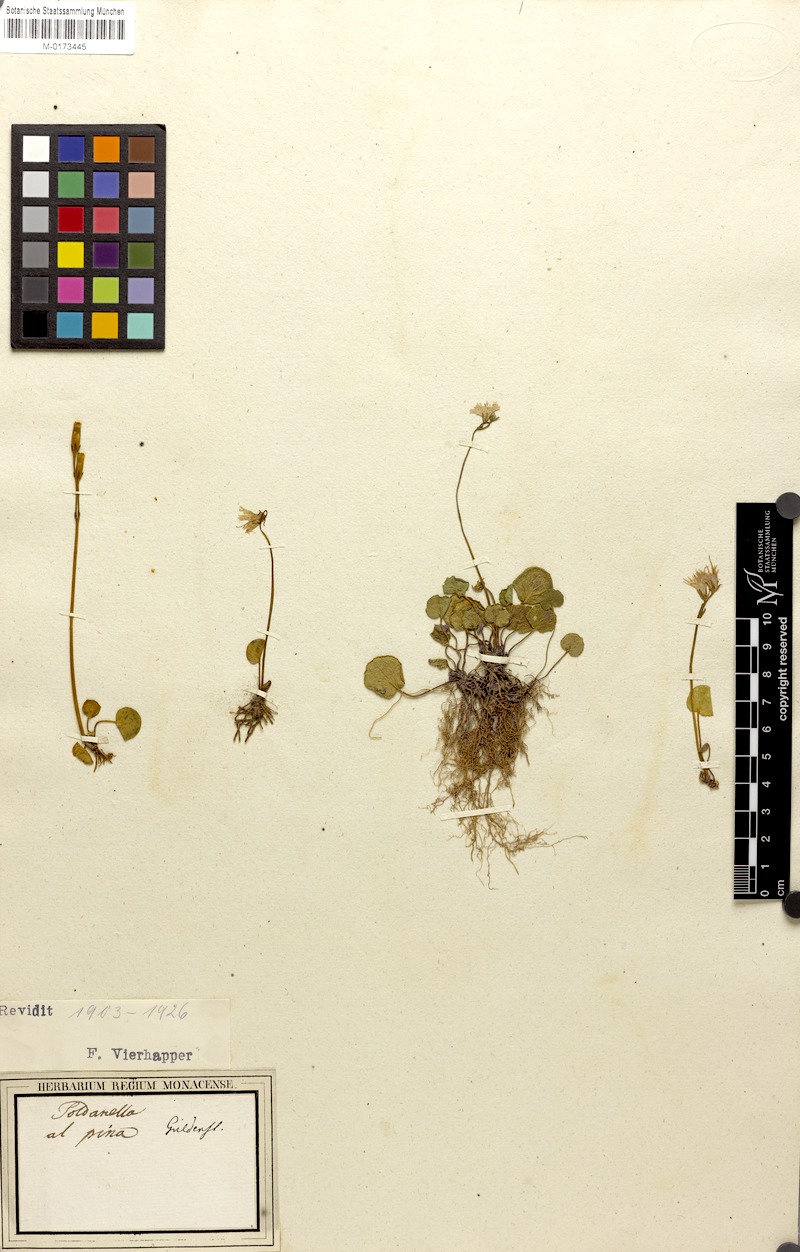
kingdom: Plantae
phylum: Tracheophyta
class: Magnoliopsida
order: Ericales
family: Primulaceae
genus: Soldanella
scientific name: Soldanella alpina
